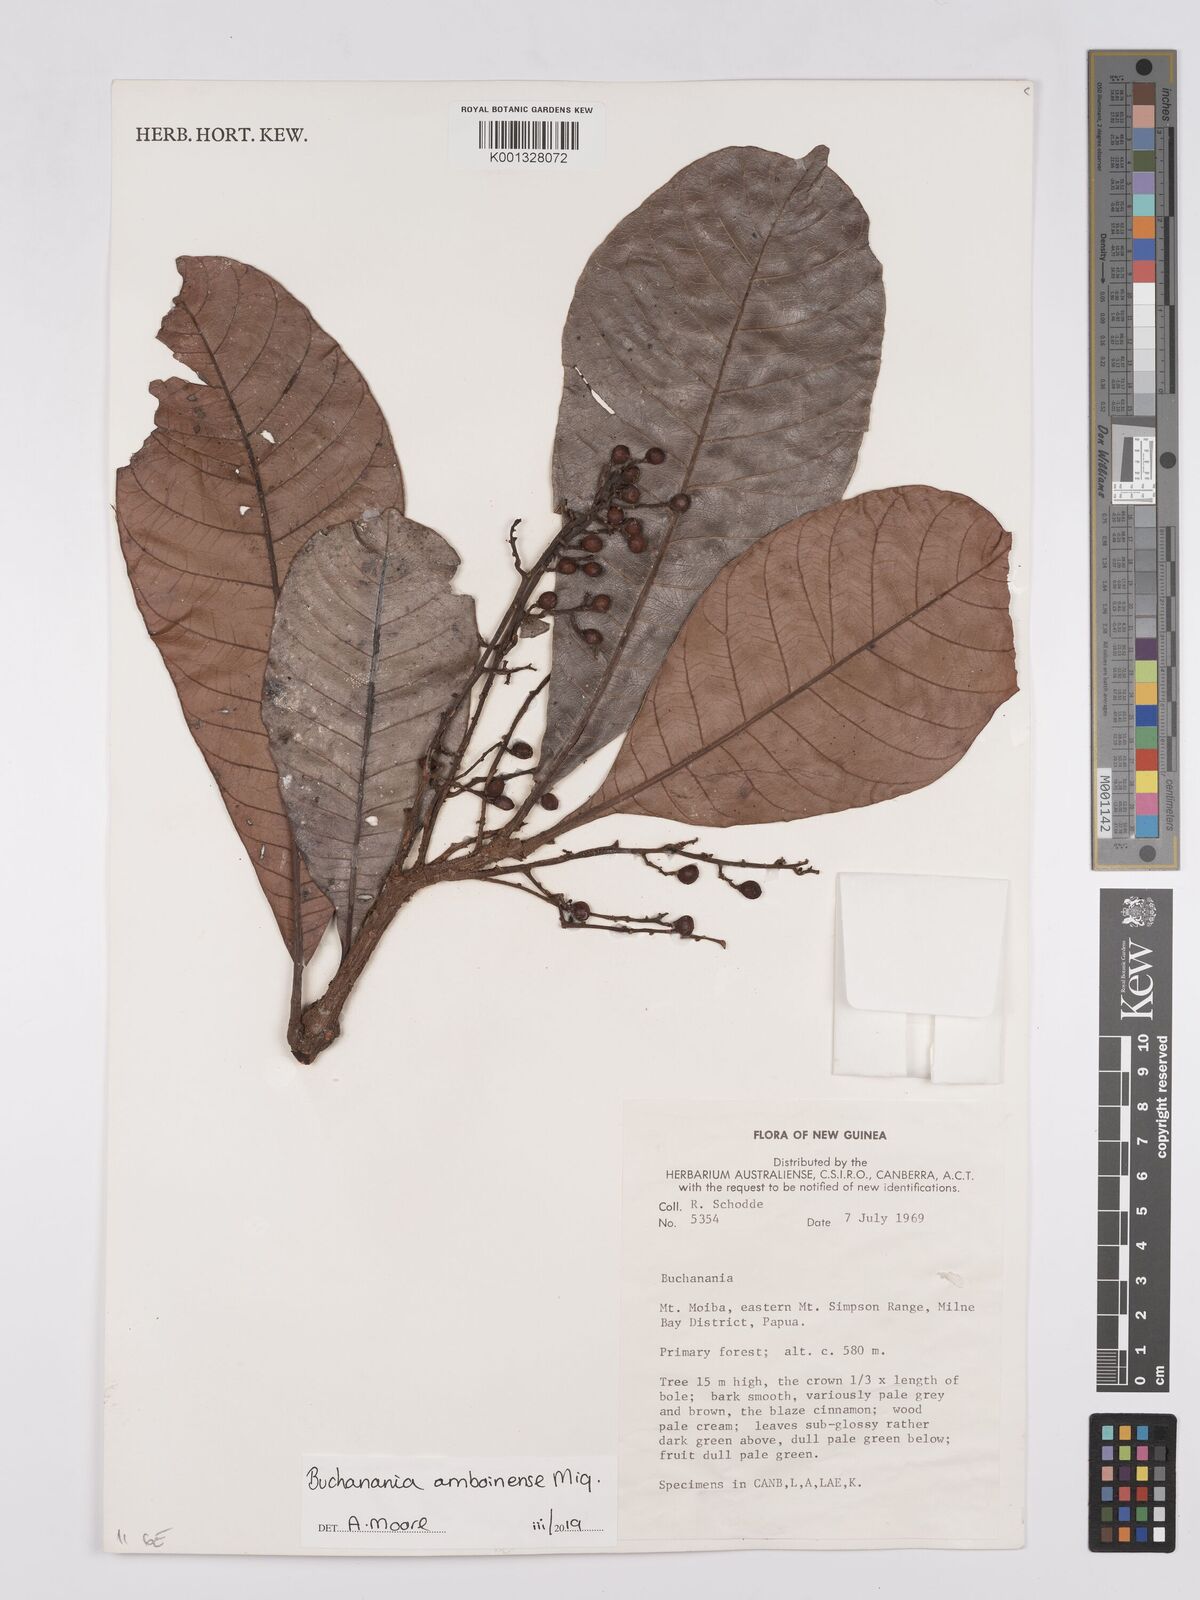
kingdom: Plantae
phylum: Tracheophyta
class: Magnoliopsida
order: Sapindales
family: Anacardiaceae
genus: Buchanania
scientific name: Buchanania
